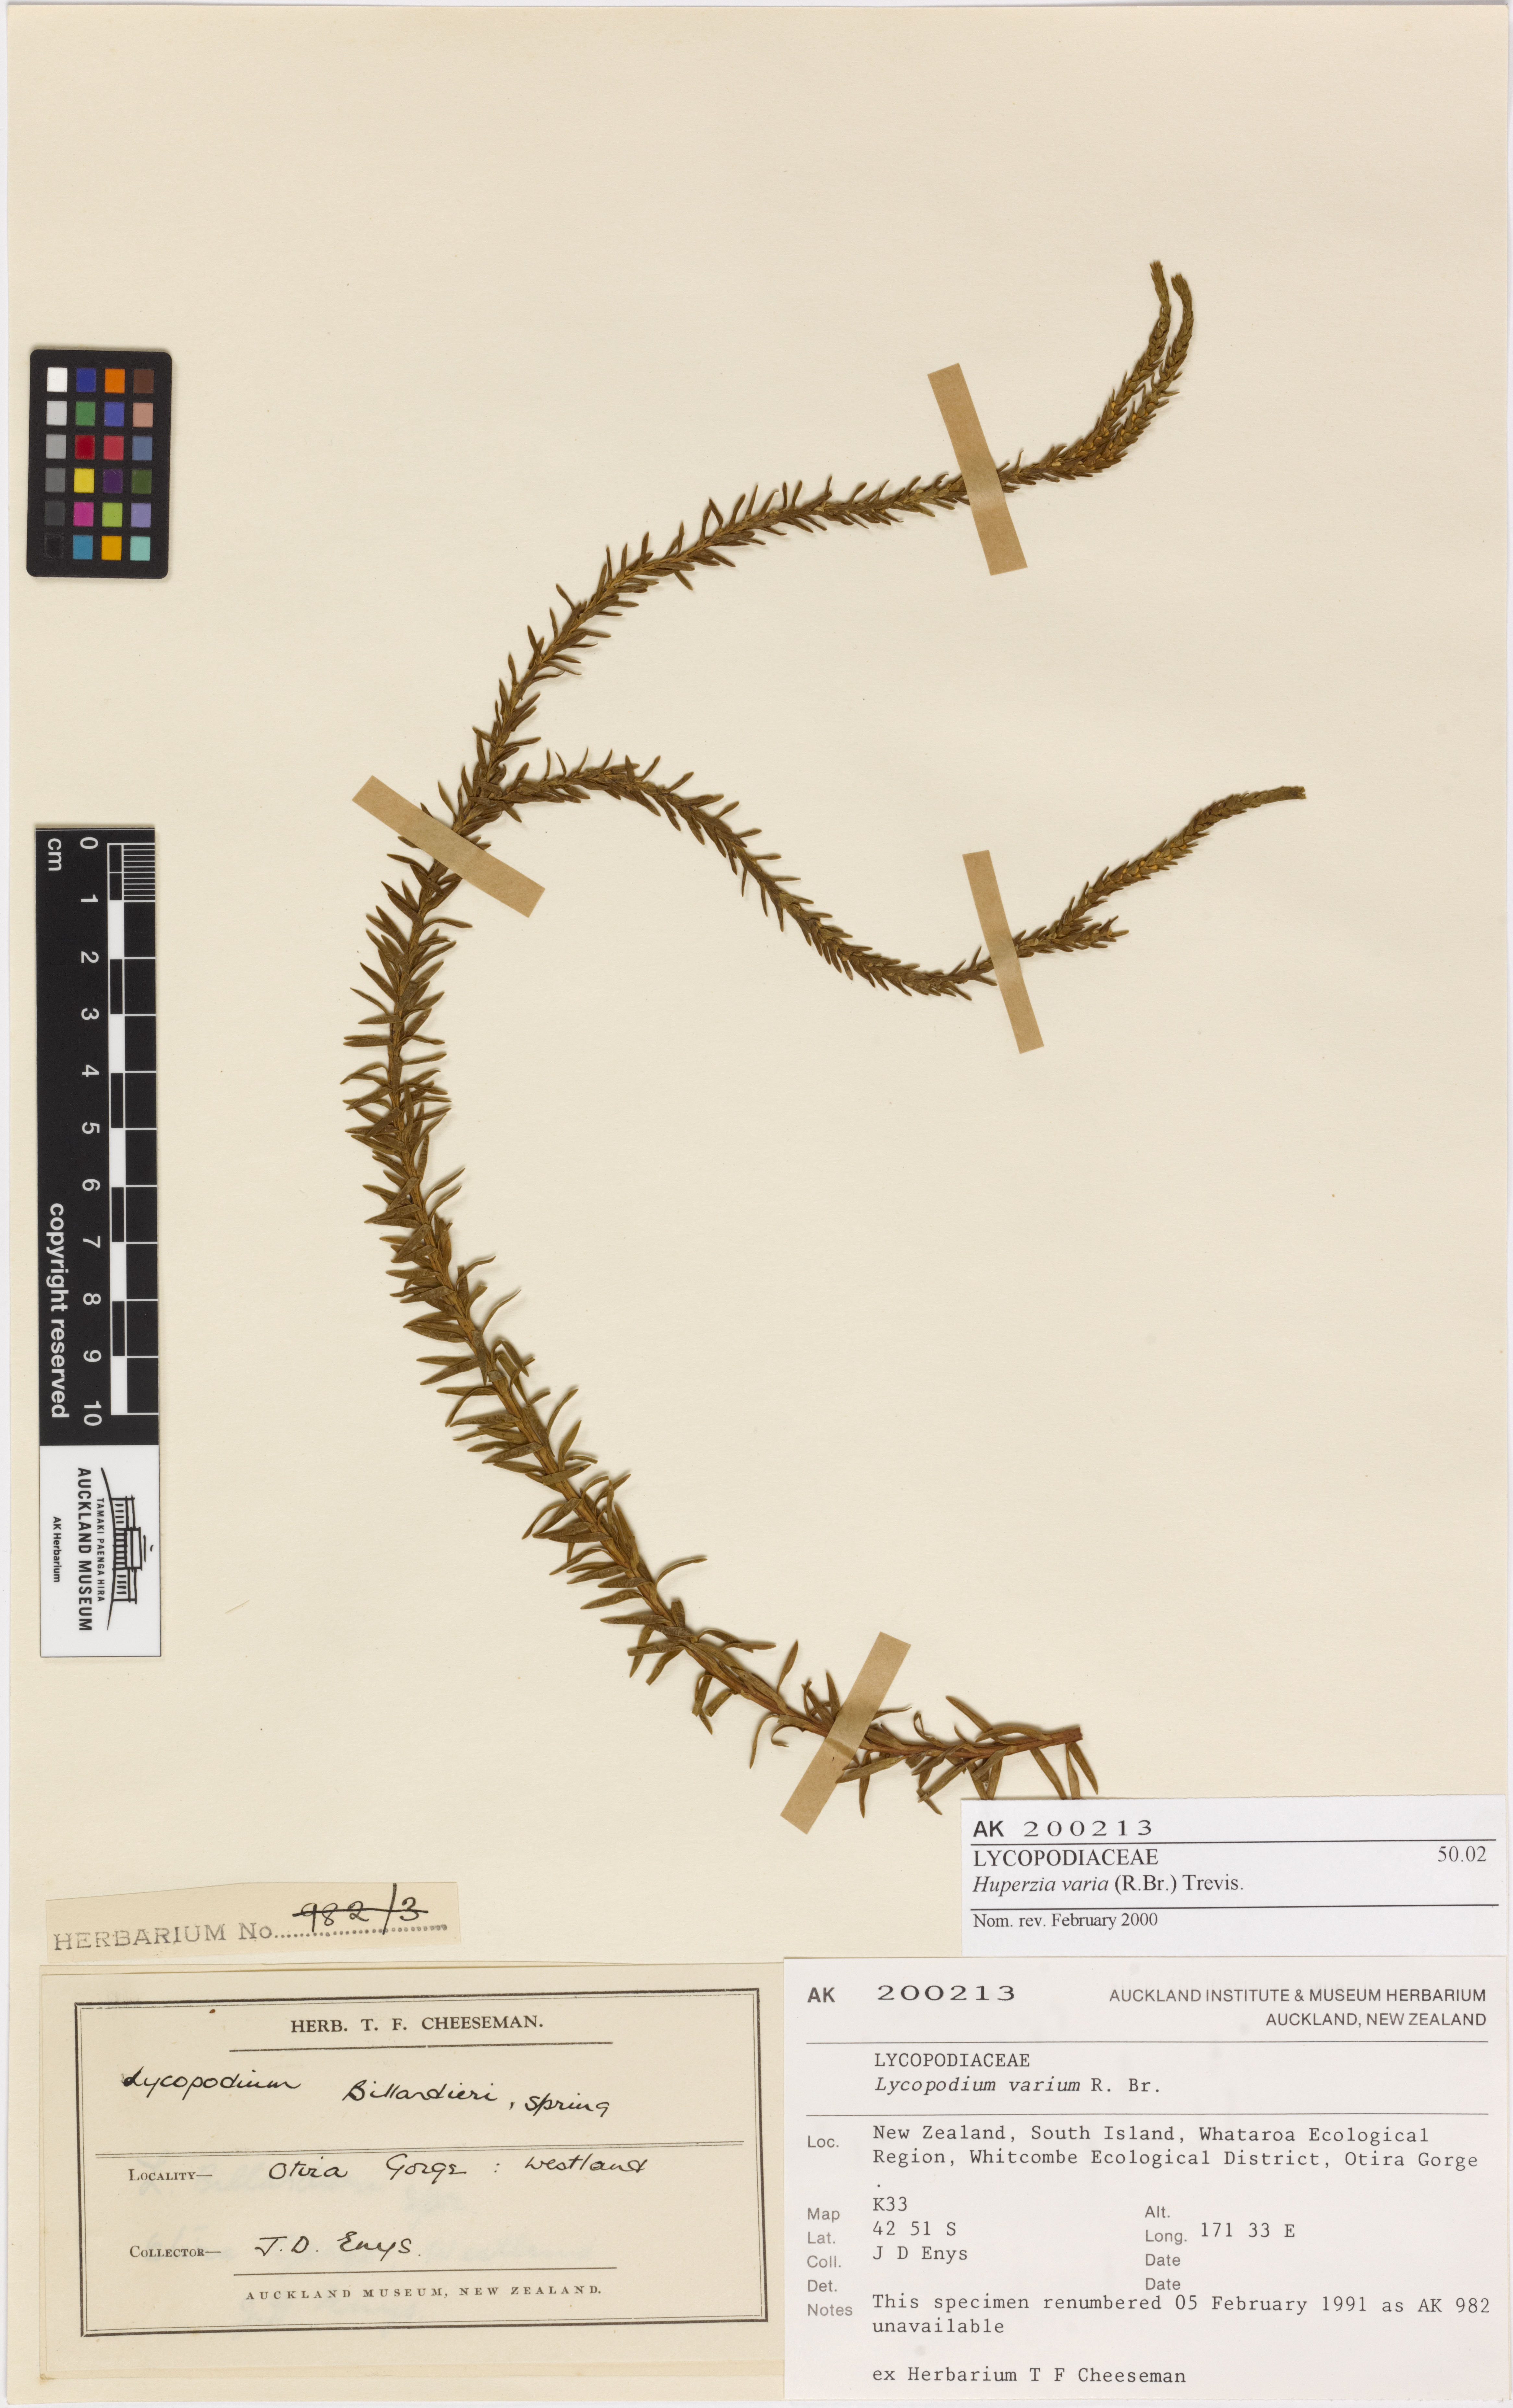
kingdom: Plantae
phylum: Tracheophyta
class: Lycopodiopsida
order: Lycopodiales
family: Lycopodiaceae
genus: Phlegmariurus
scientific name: Phlegmariurus varius
